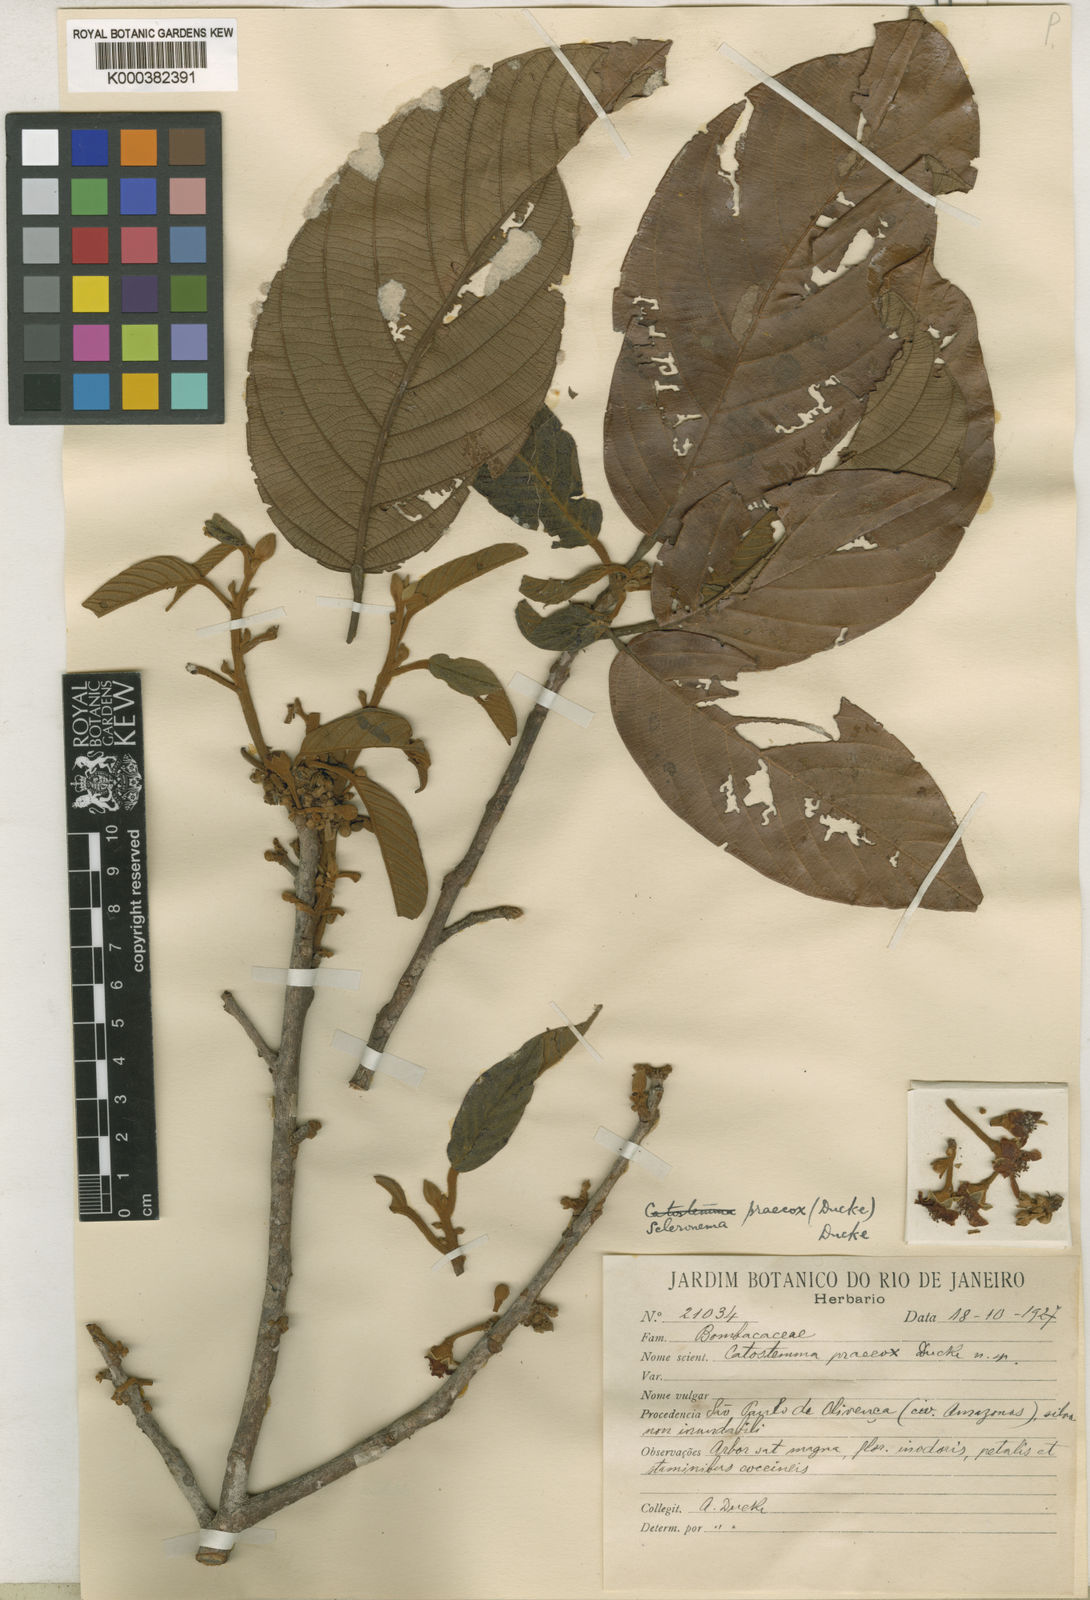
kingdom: Plantae
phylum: Tracheophyta
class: Magnoliopsida
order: Malvales
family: Malvaceae
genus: Scleronema
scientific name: Scleronema praecox
